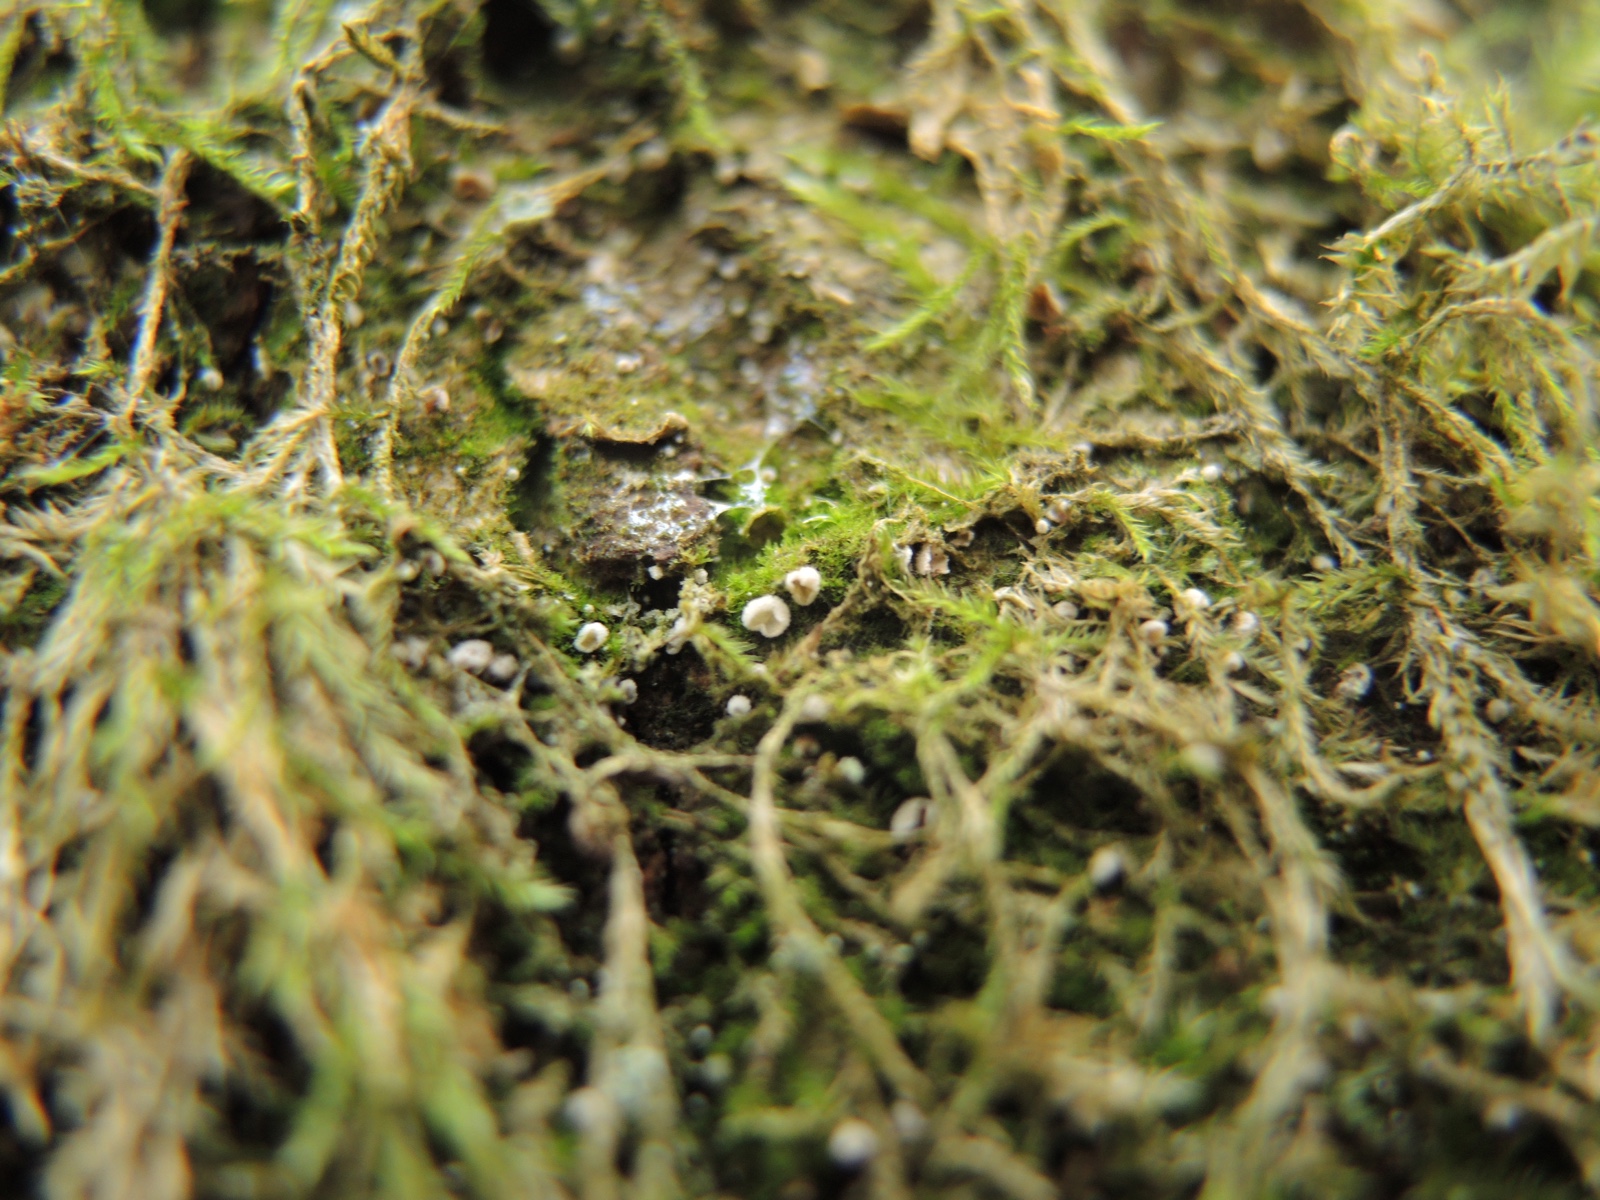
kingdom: Fungi
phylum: Basidiomycota
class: Agaricomycetes
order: Agaricales
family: Chromocyphellaceae
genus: Chromocyphella
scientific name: Chromocyphella muscicola
